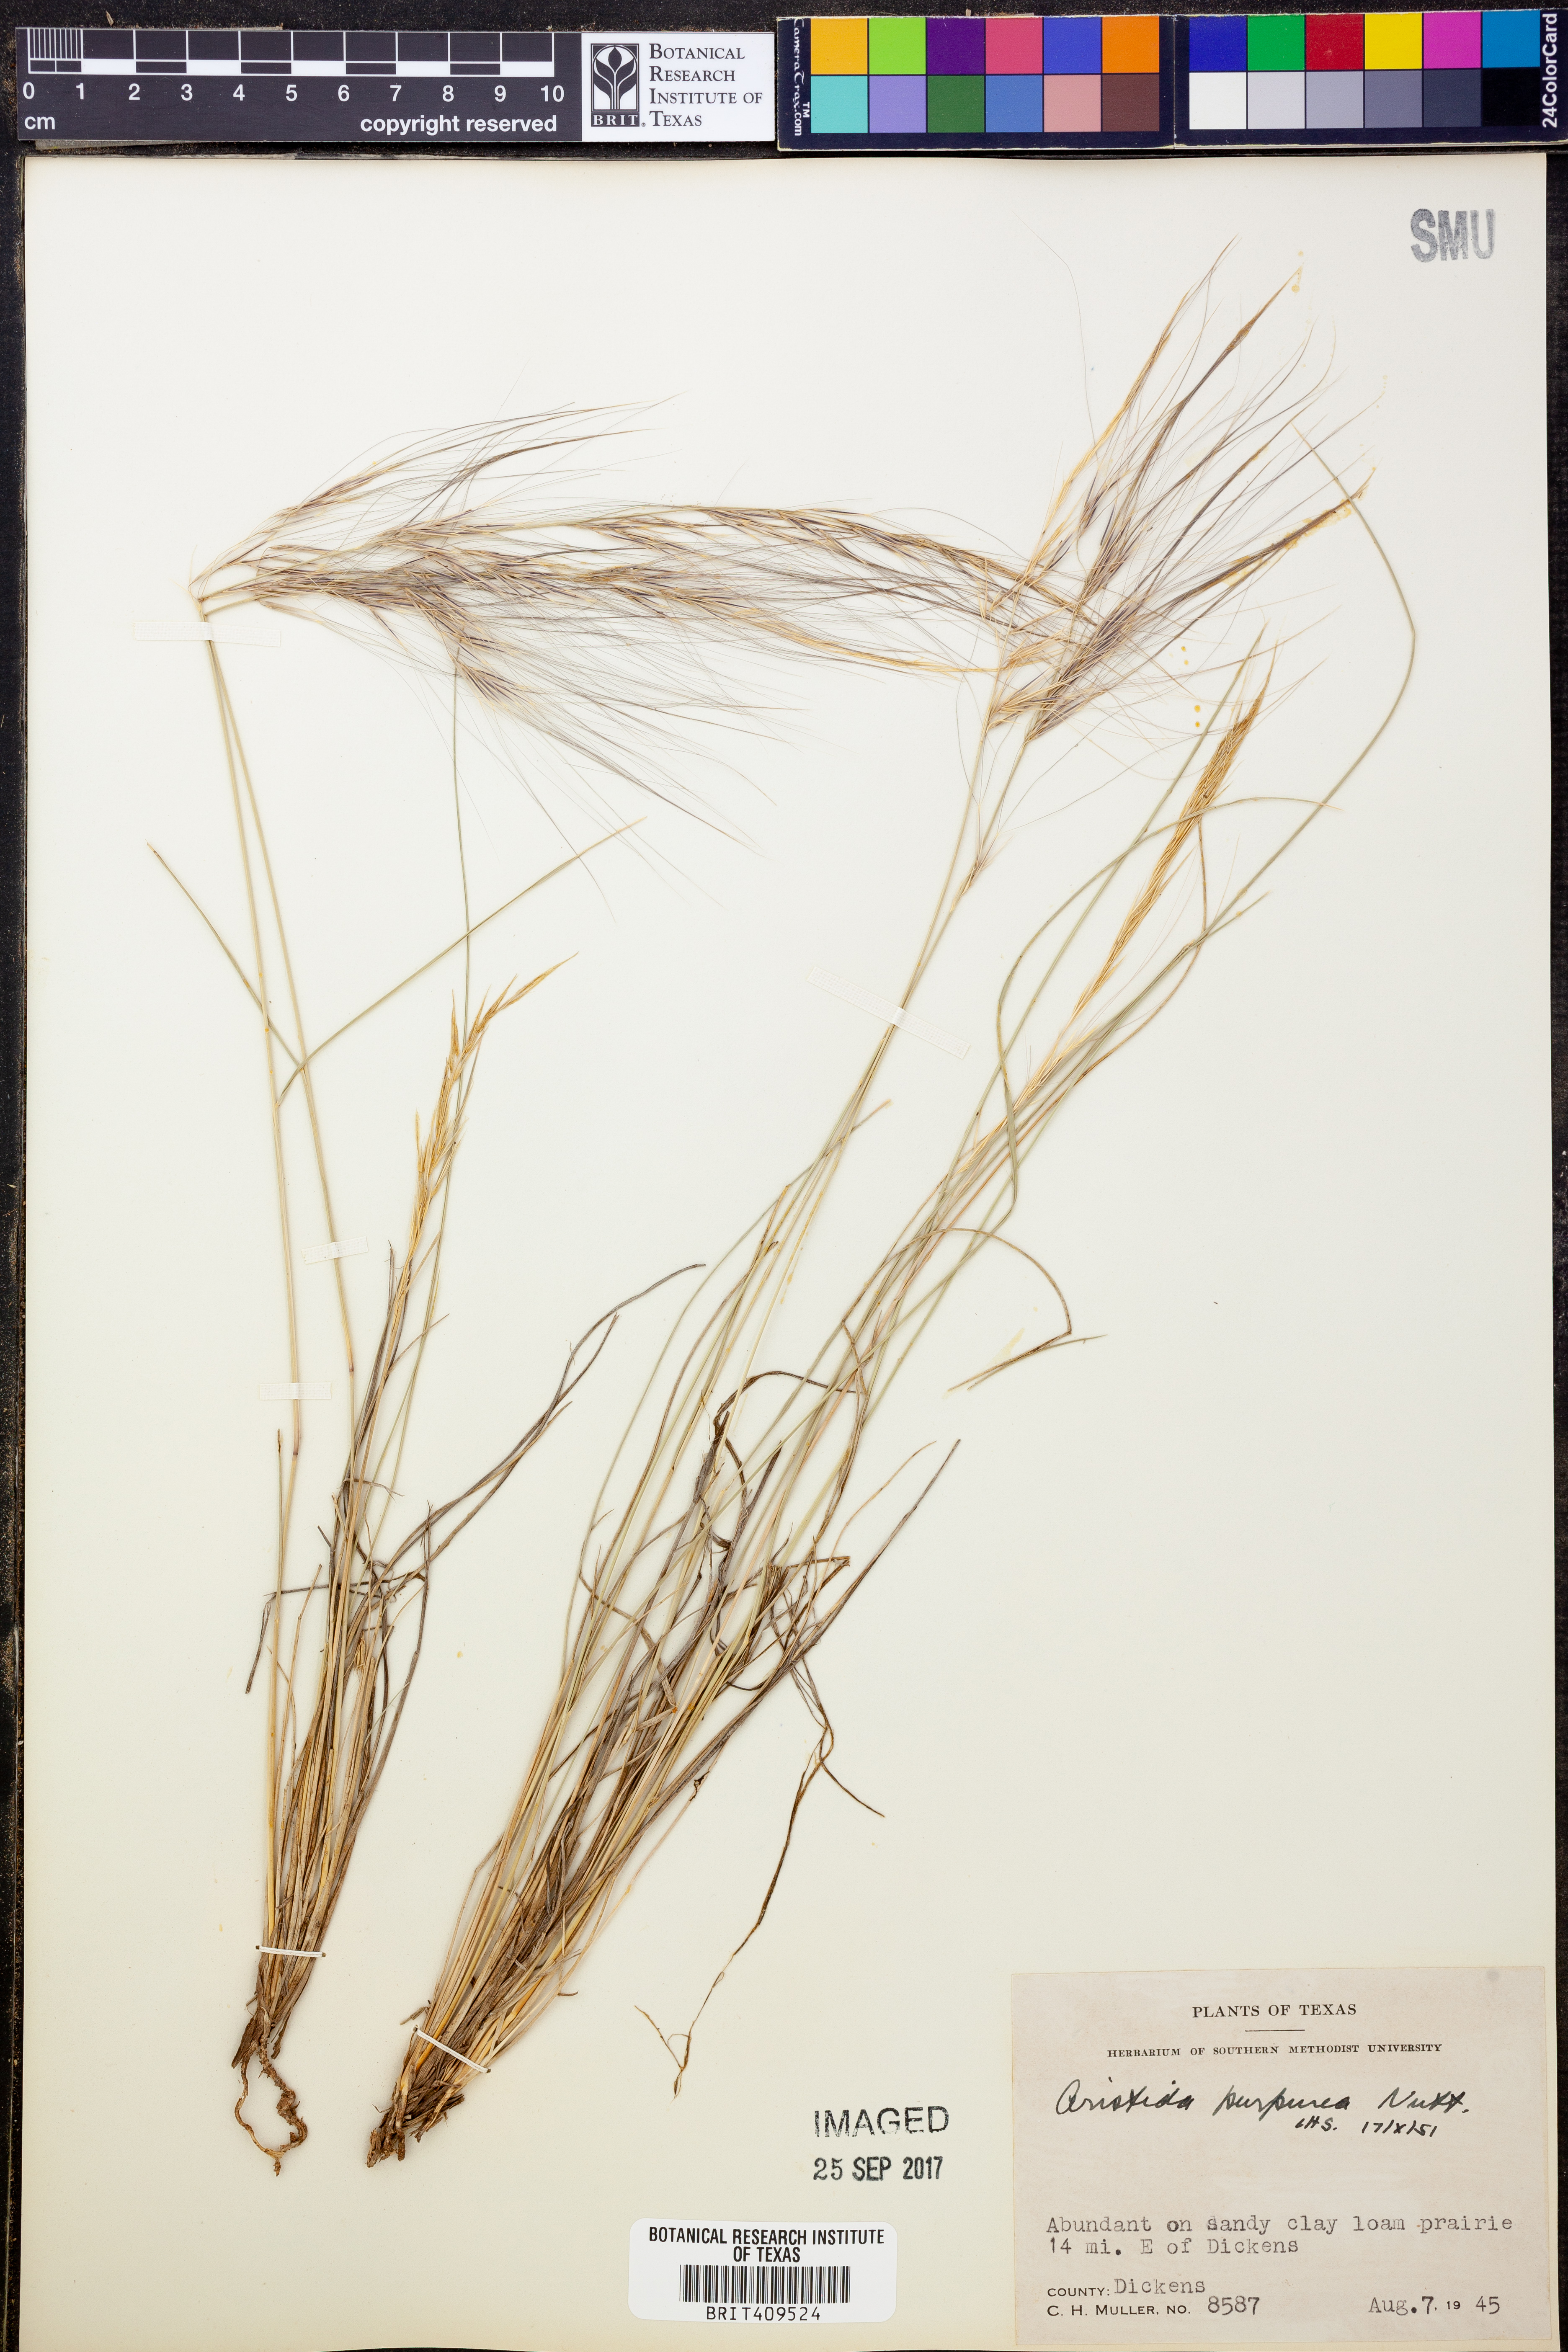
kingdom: Plantae
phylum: Tracheophyta
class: Liliopsida
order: Poales
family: Poaceae
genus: Aristida
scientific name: Aristida purpurea
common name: Purple threeawn
